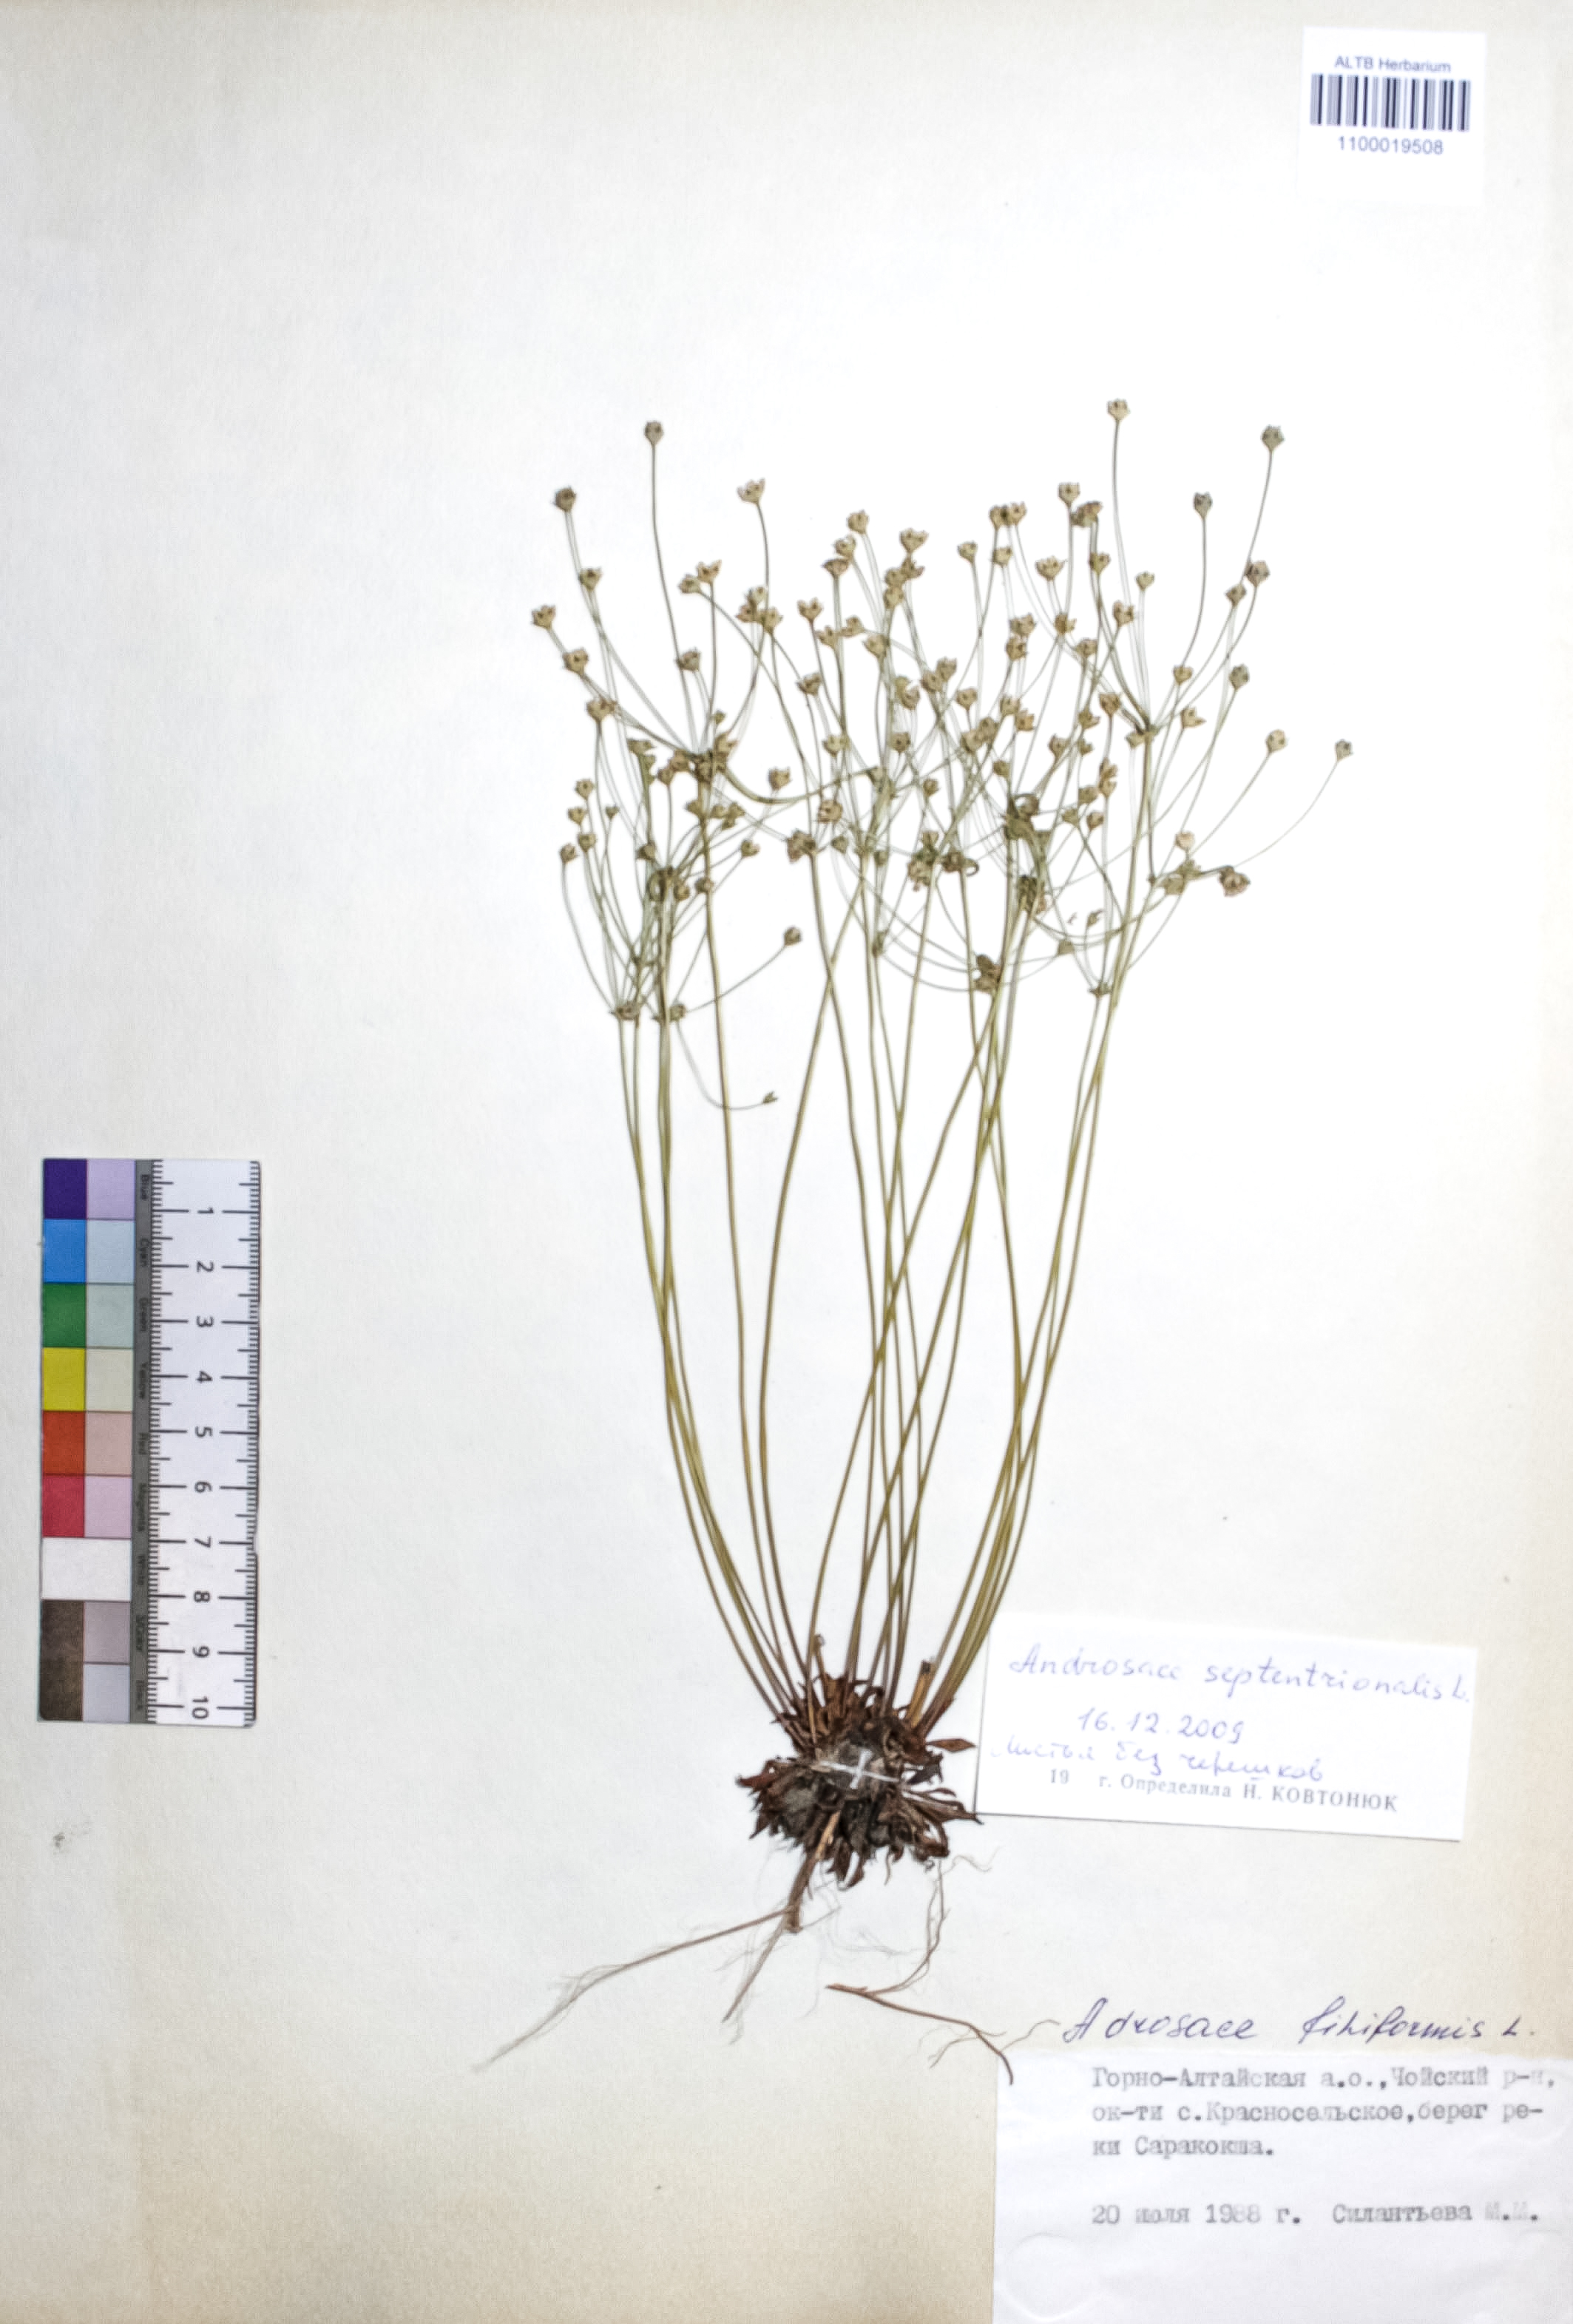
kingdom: Plantae
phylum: Tracheophyta
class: Magnoliopsida
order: Ericales
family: Primulaceae
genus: Androsace
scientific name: Androsace septentrionalis
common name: Hairy northern fairy-candelabra
